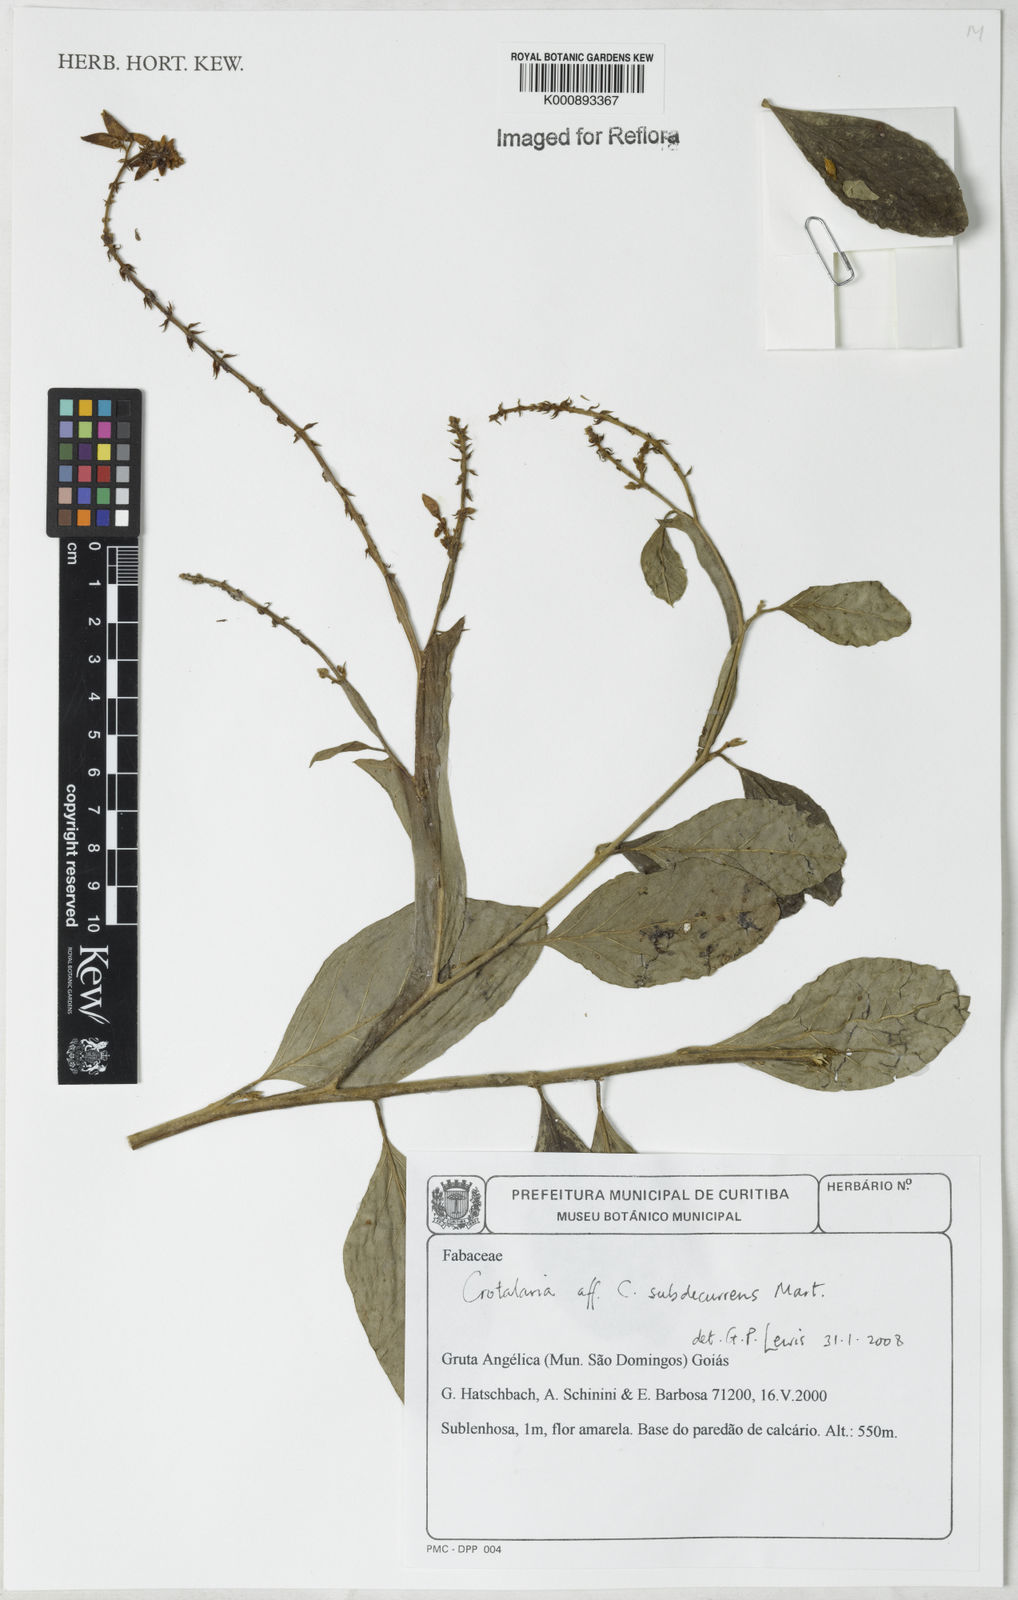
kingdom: Plantae
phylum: Tracheophyta
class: Magnoliopsida
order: Fabales
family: Fabaceae
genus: Crotalaria
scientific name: Crotalaria breviflora
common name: Short-flower crotalaria
